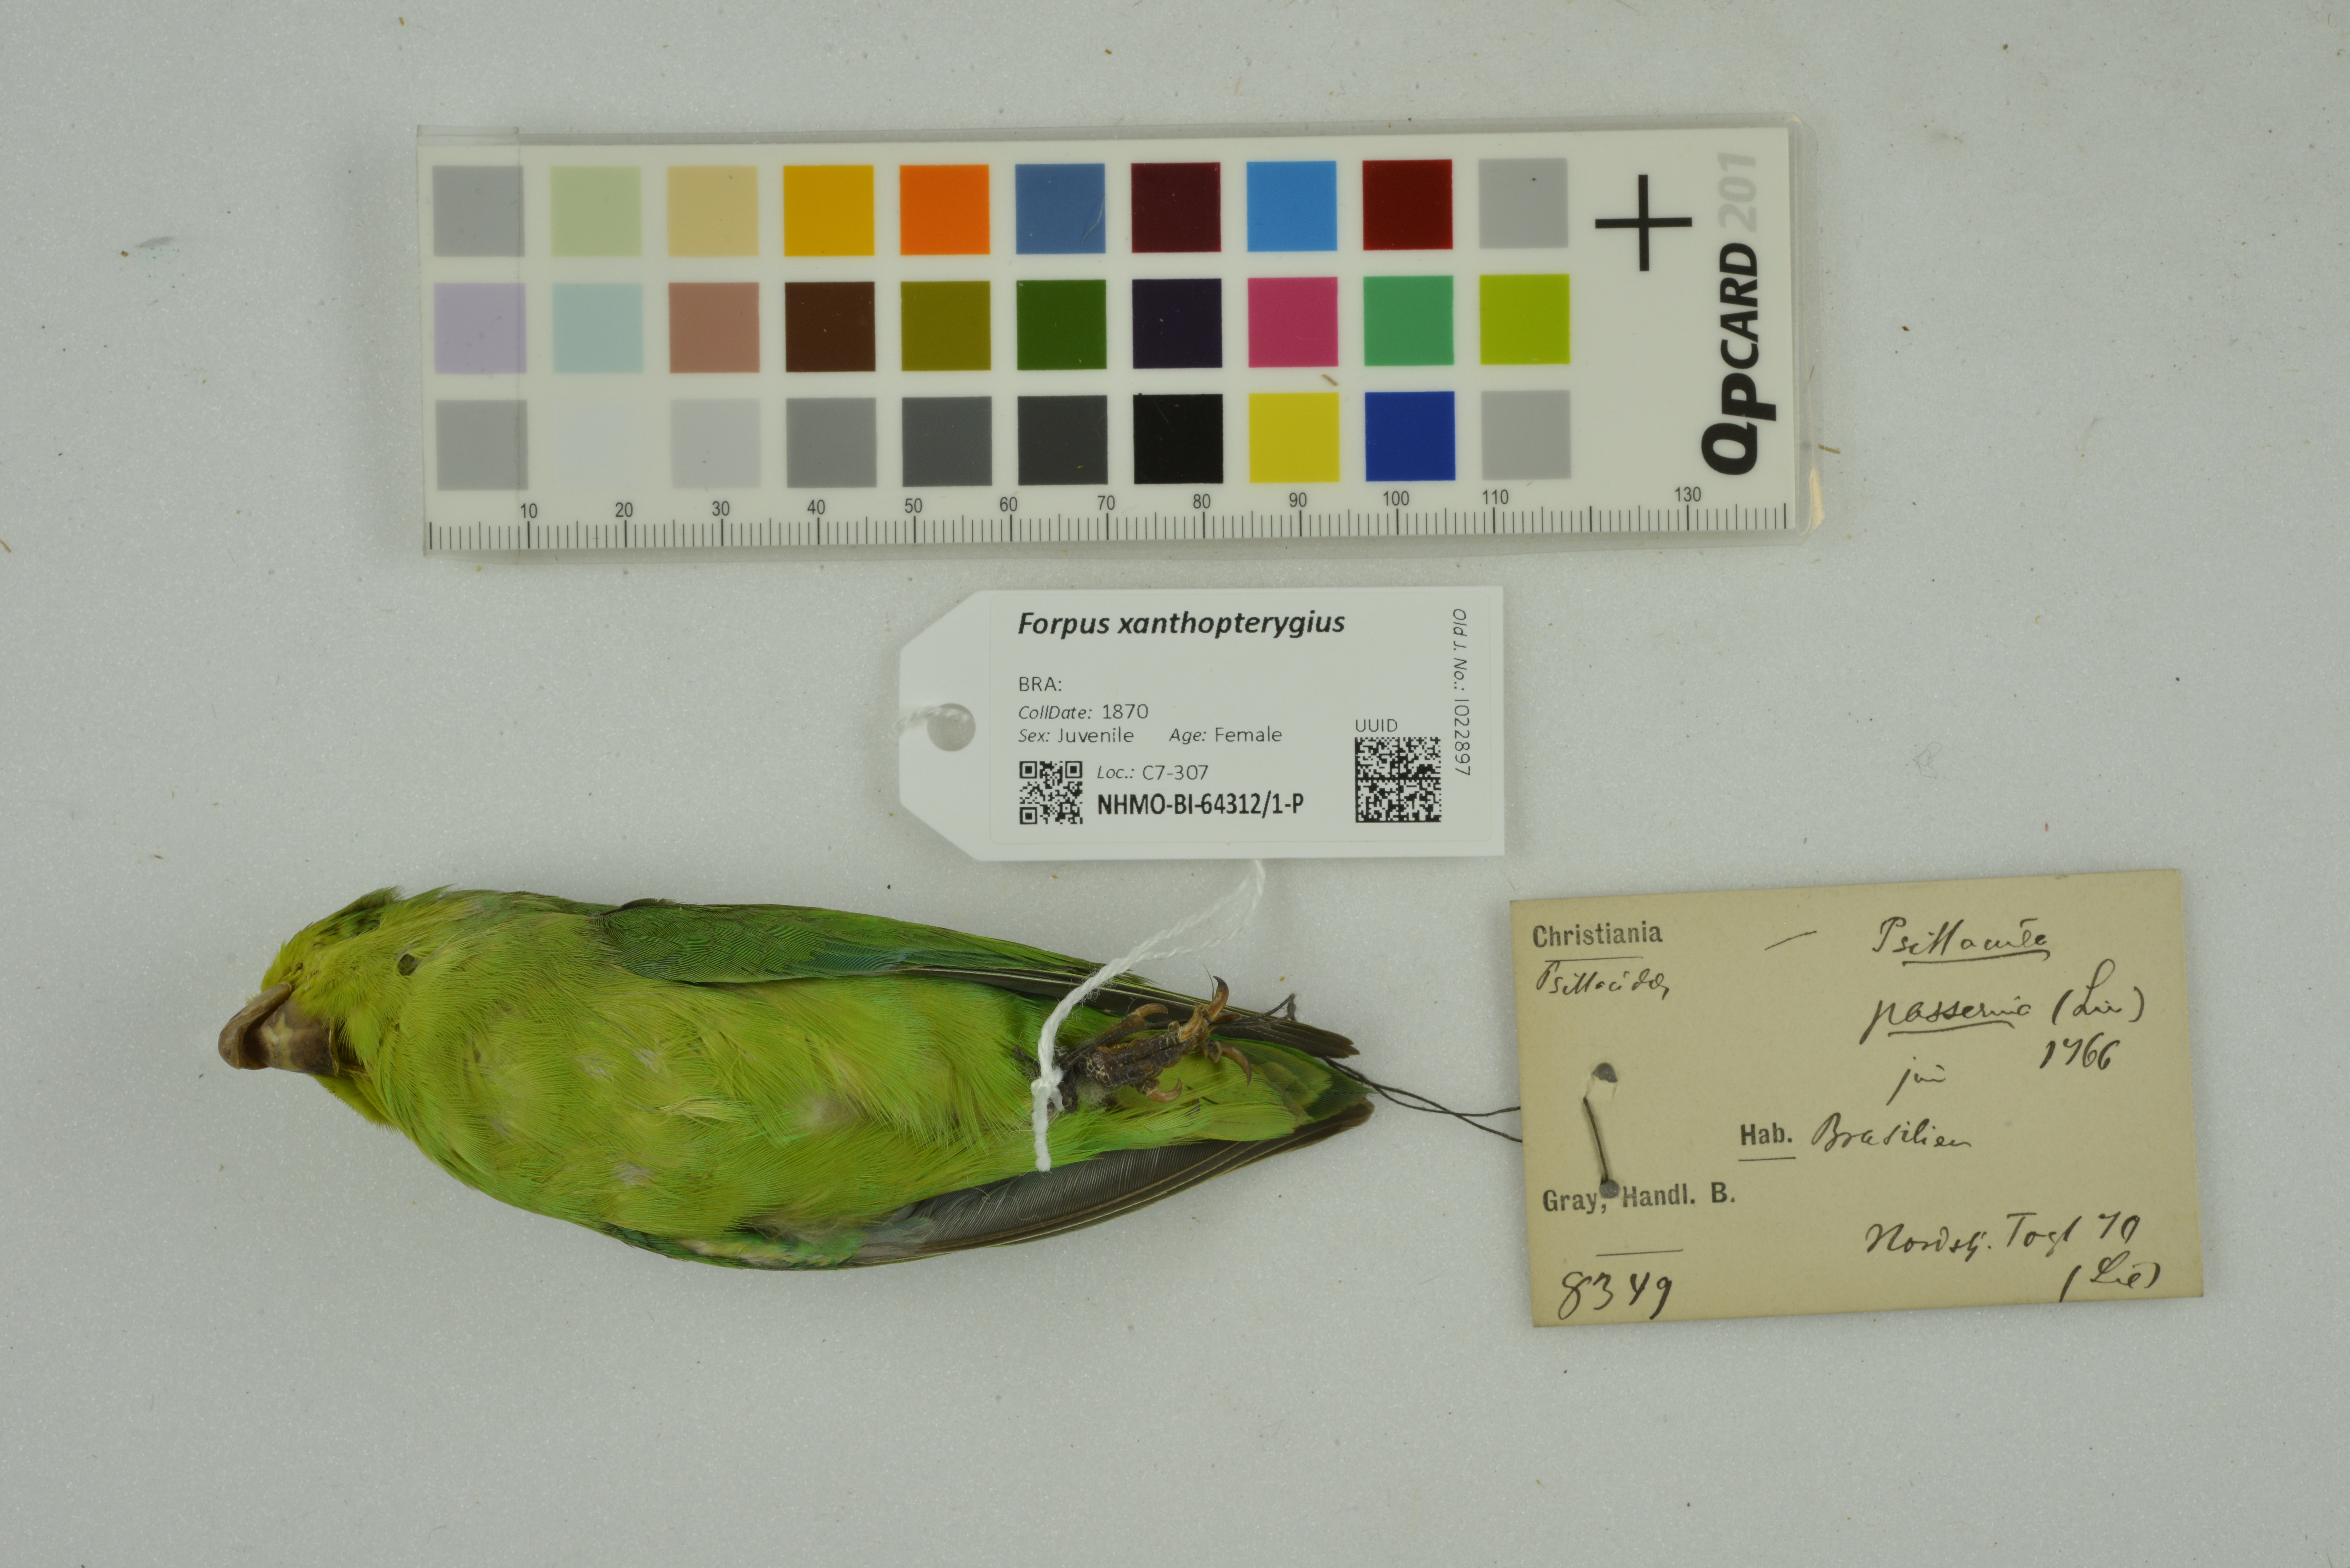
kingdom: Animalia
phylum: Chordata
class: Aves
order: Psittaciformes
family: Psittacidae
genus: Forpus
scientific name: Forpus xanthopterygius
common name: Blue-winged parrotlet
